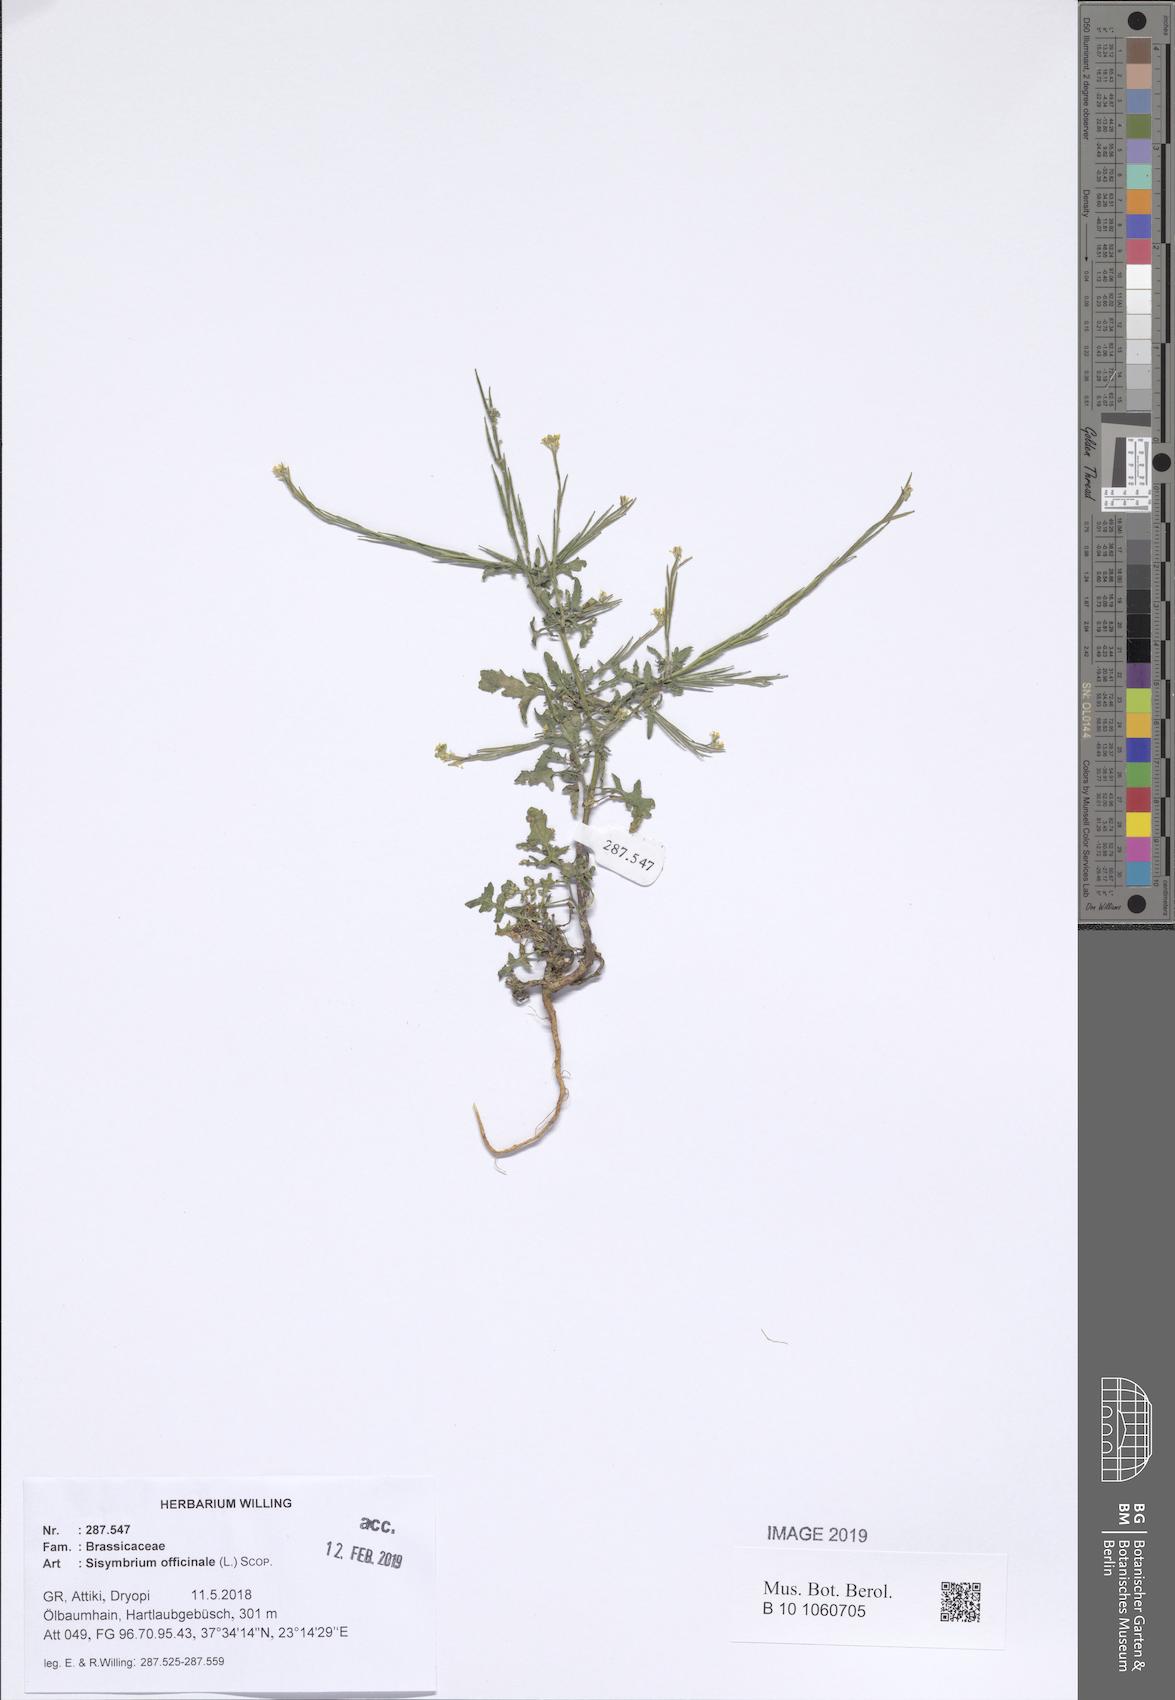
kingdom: Plantae
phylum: Tracheophyta
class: Magnoliopsida
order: Brassicales
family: Brassicaceae
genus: Sisymbrium
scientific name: Sisymbrium officinale
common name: Hedge mustard
